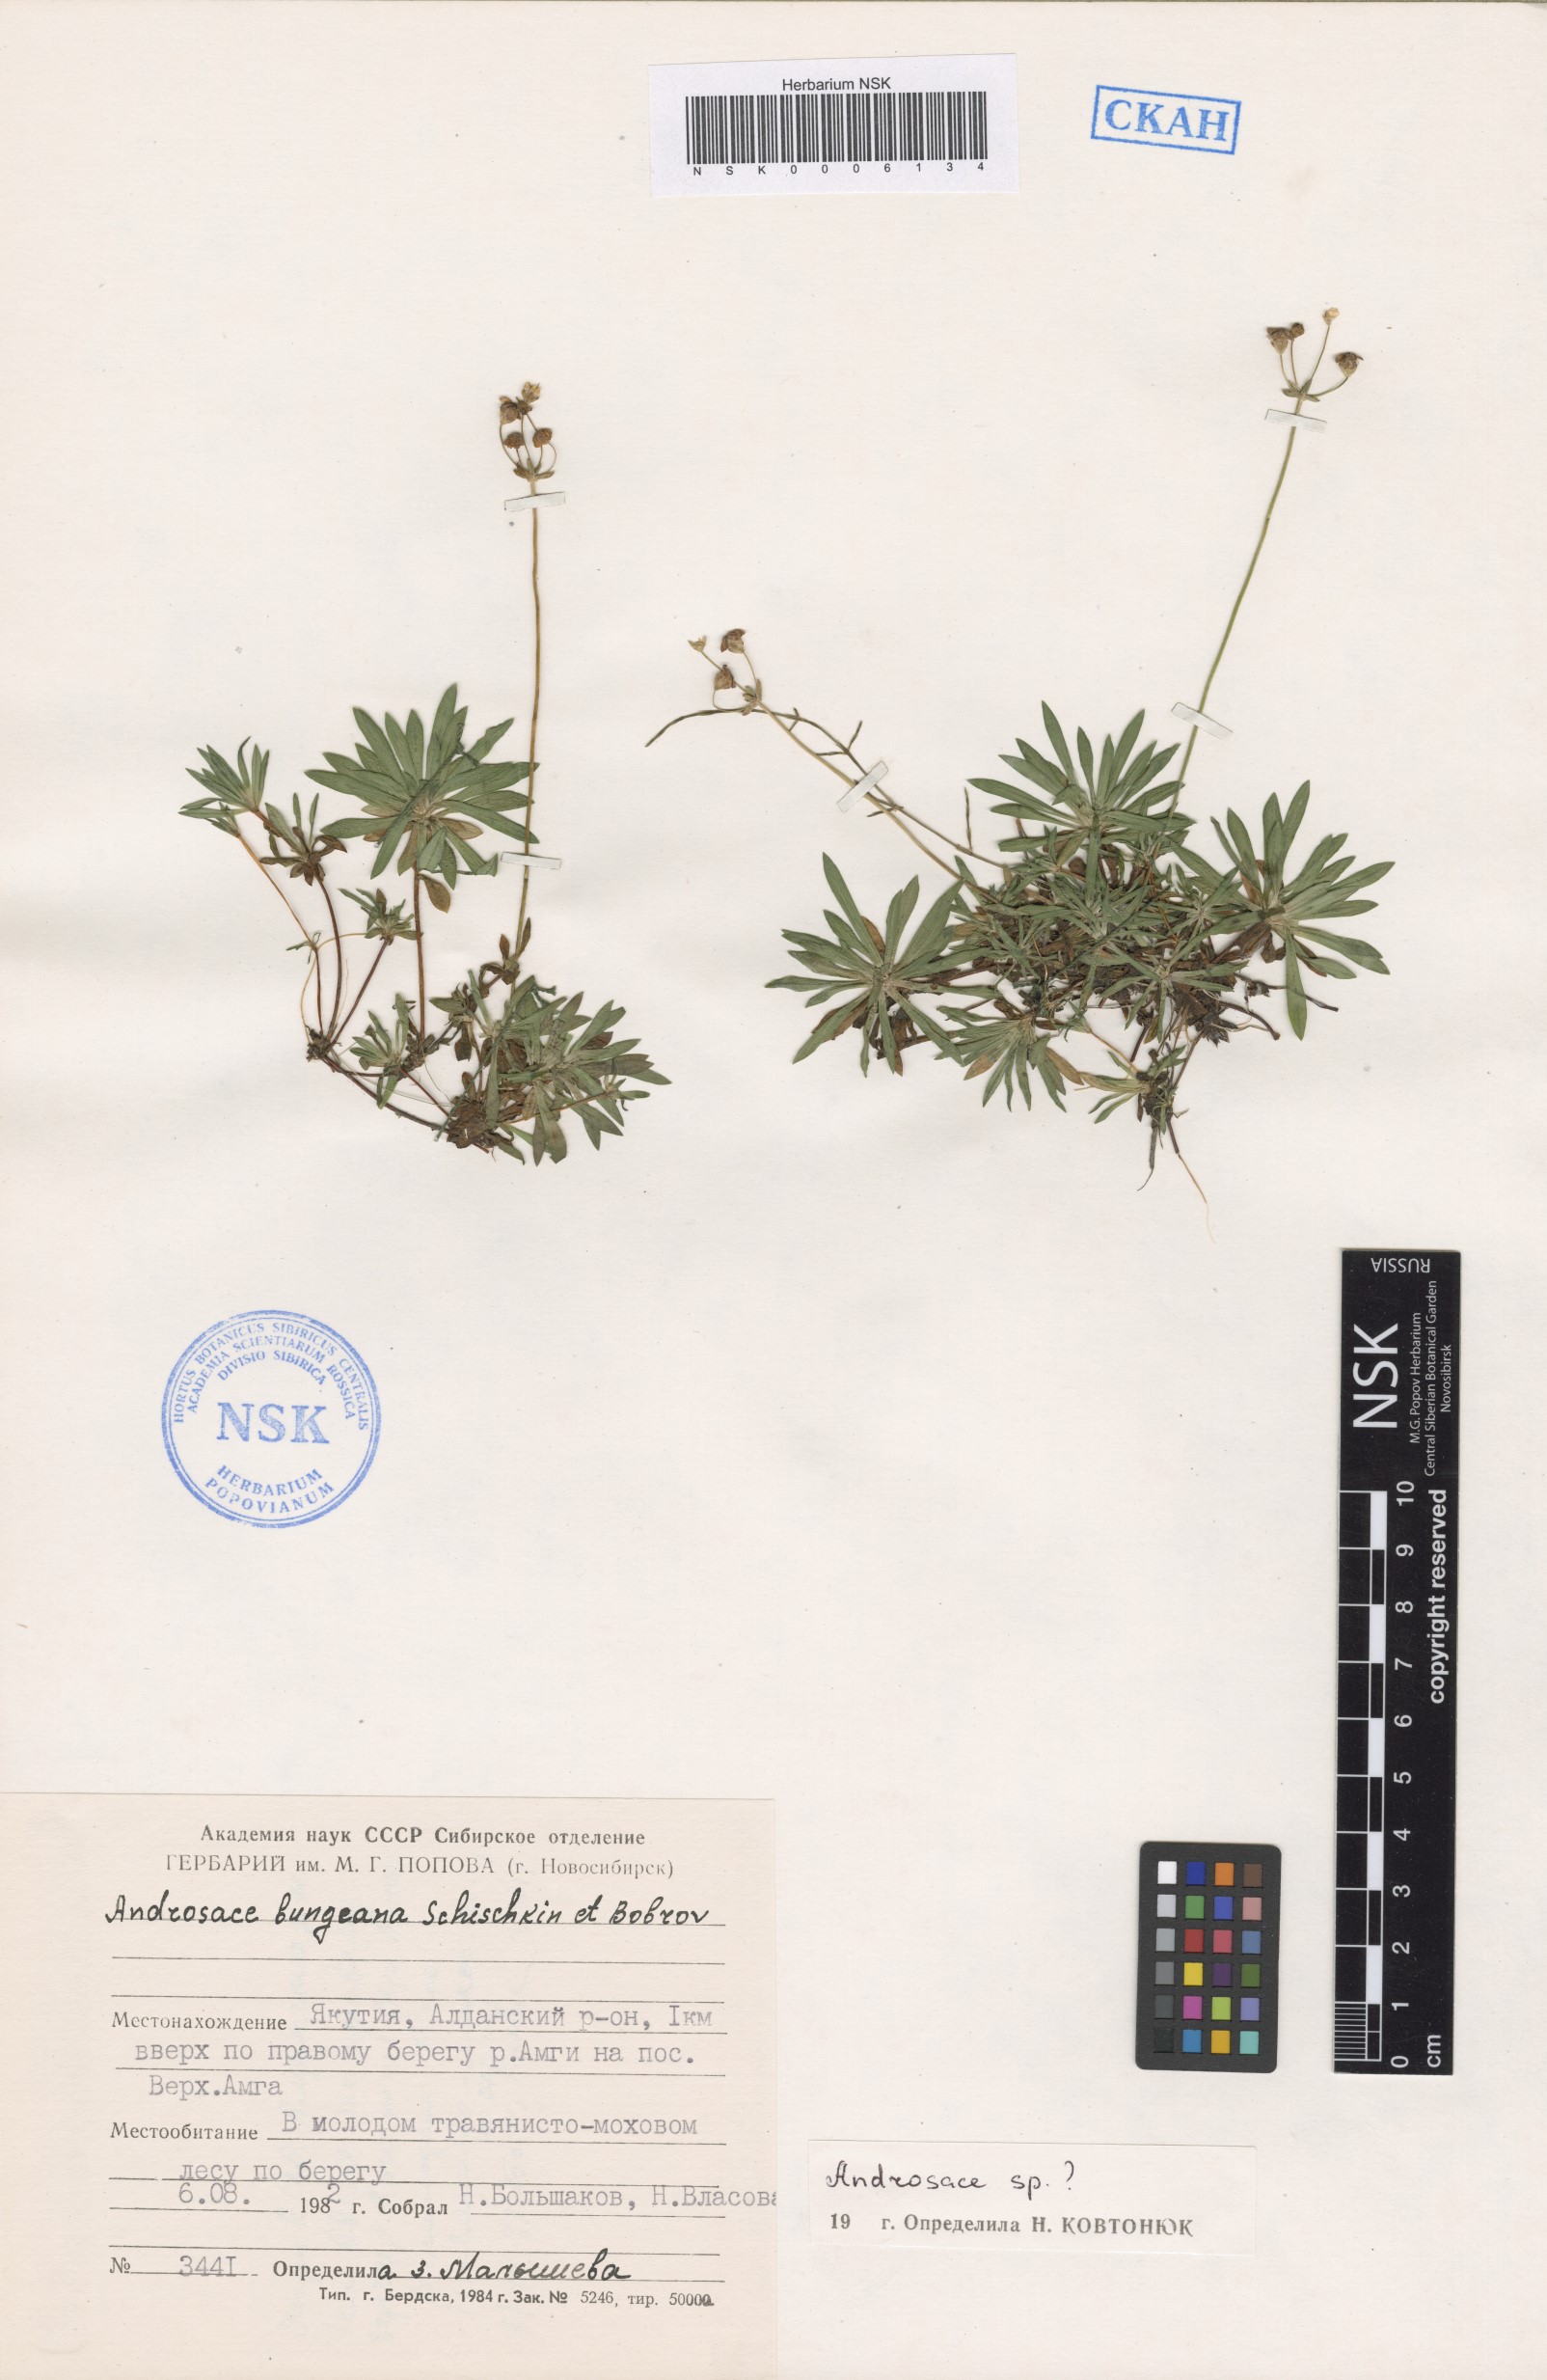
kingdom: Plantae
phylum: Tracheophyta
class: Magnoliopsida
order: Ericales
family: Primulaceae
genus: Androsace
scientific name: Androsace
